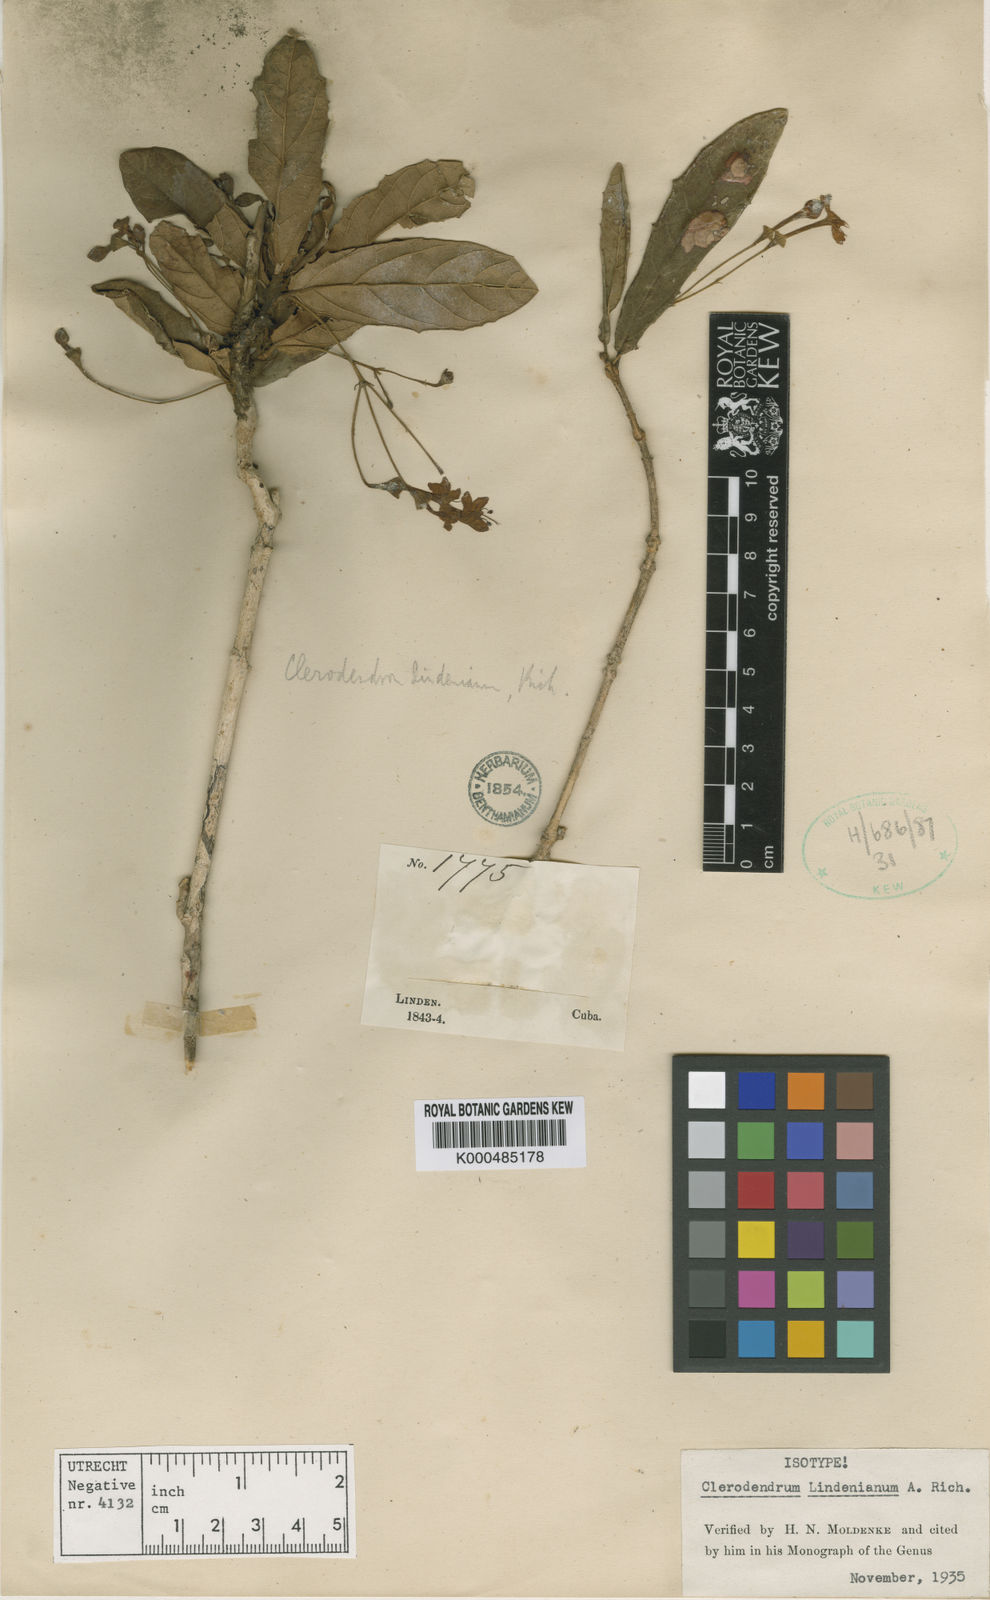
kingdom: Plantae
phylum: Tracheophyta
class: Magnoliopsida
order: Lamiales
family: Lamiaceae
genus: Clerodendrum
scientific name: Clerodendrum lindenianum
